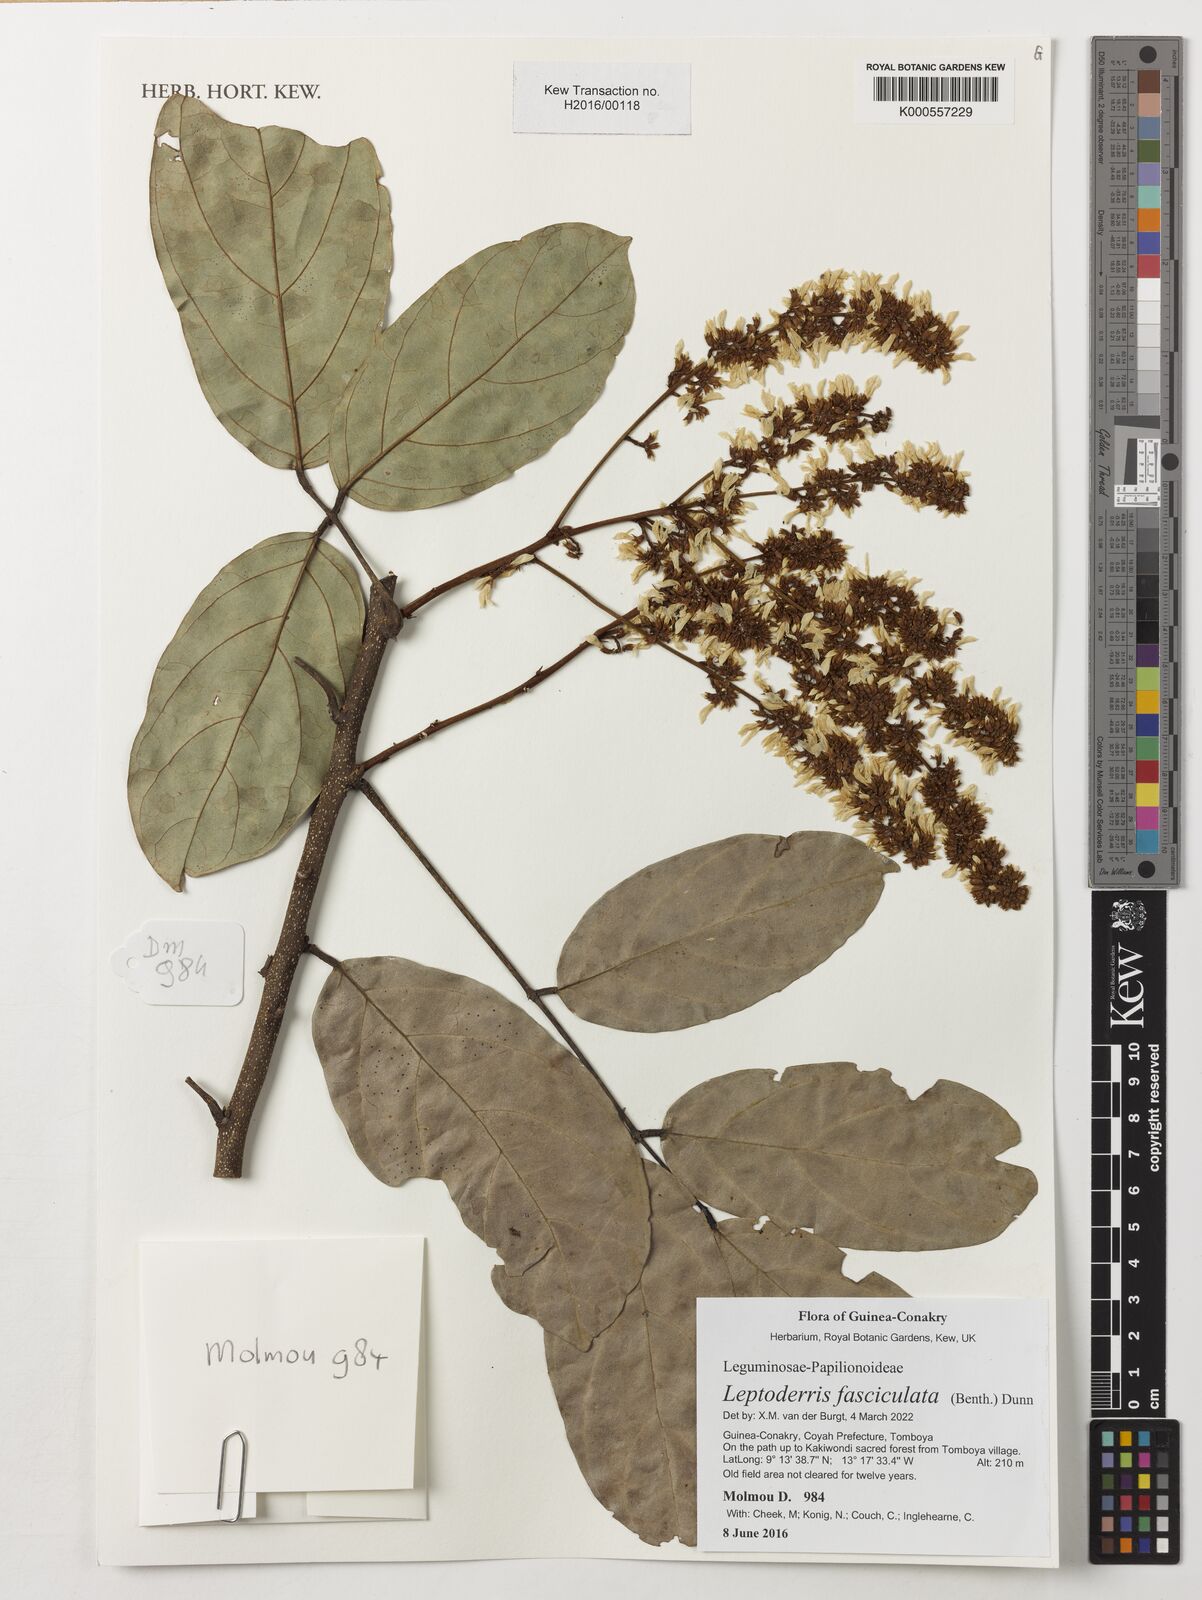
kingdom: Plantae
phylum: Tracheophyta
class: Magnoliopsida
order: Fabales
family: Fabaceae
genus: Leptoderris
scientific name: Leptoderris fasciculata
